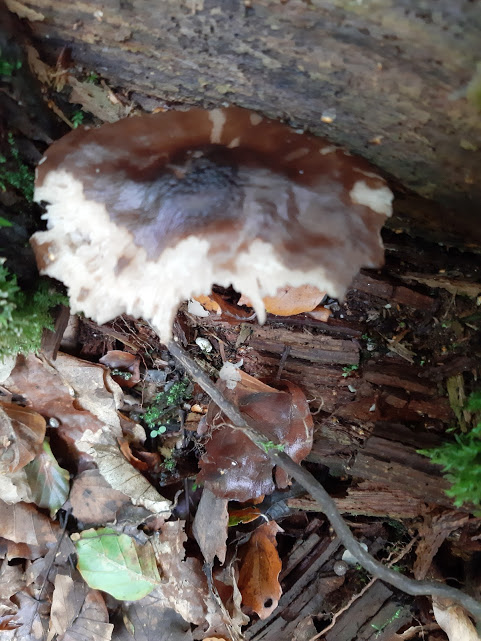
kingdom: Fungi
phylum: Basidiomycota
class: Agaricomycetes
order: Agaricales
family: Pluteaceae
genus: Pluteus
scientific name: Pluteus cervinus
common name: sodfarvet skærmhat
